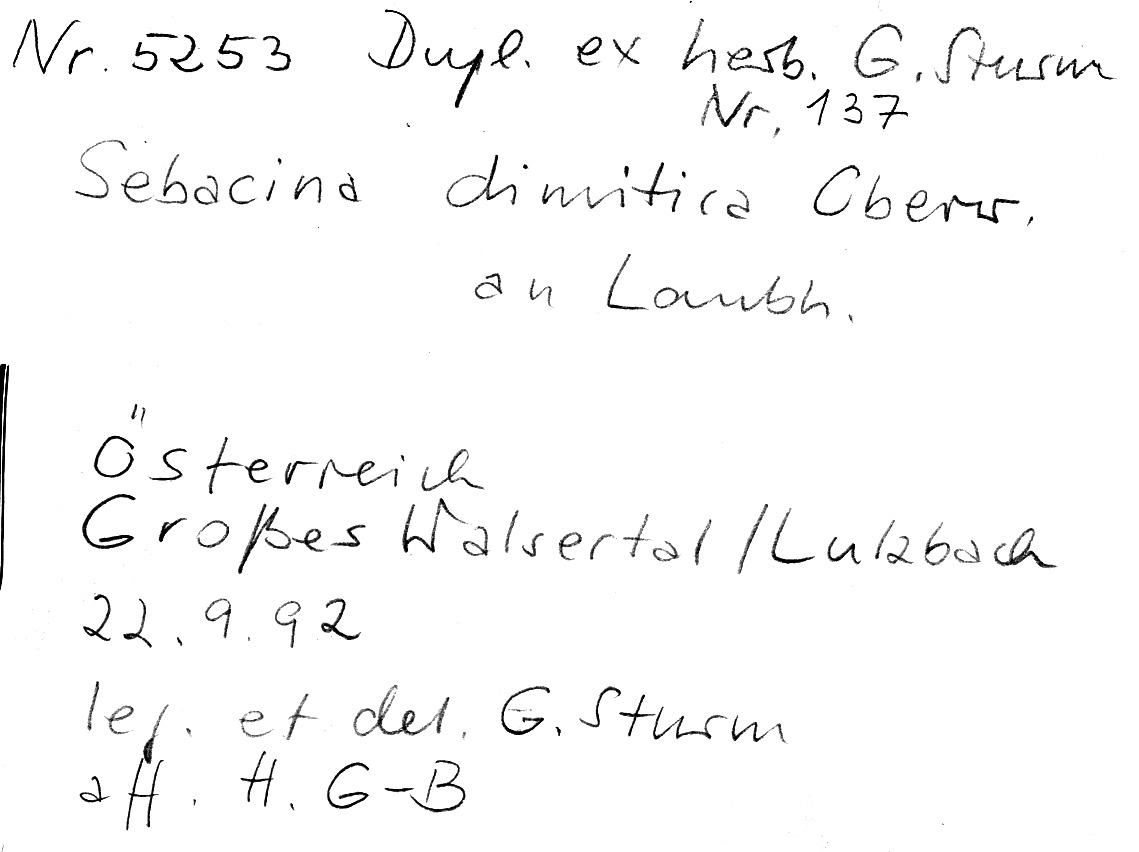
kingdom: Fungi
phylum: Basidiomycota
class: Agaricomycetes
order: Sebacinales
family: Sebacinaceae
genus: Sebacina
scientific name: Sebacina dimitica
